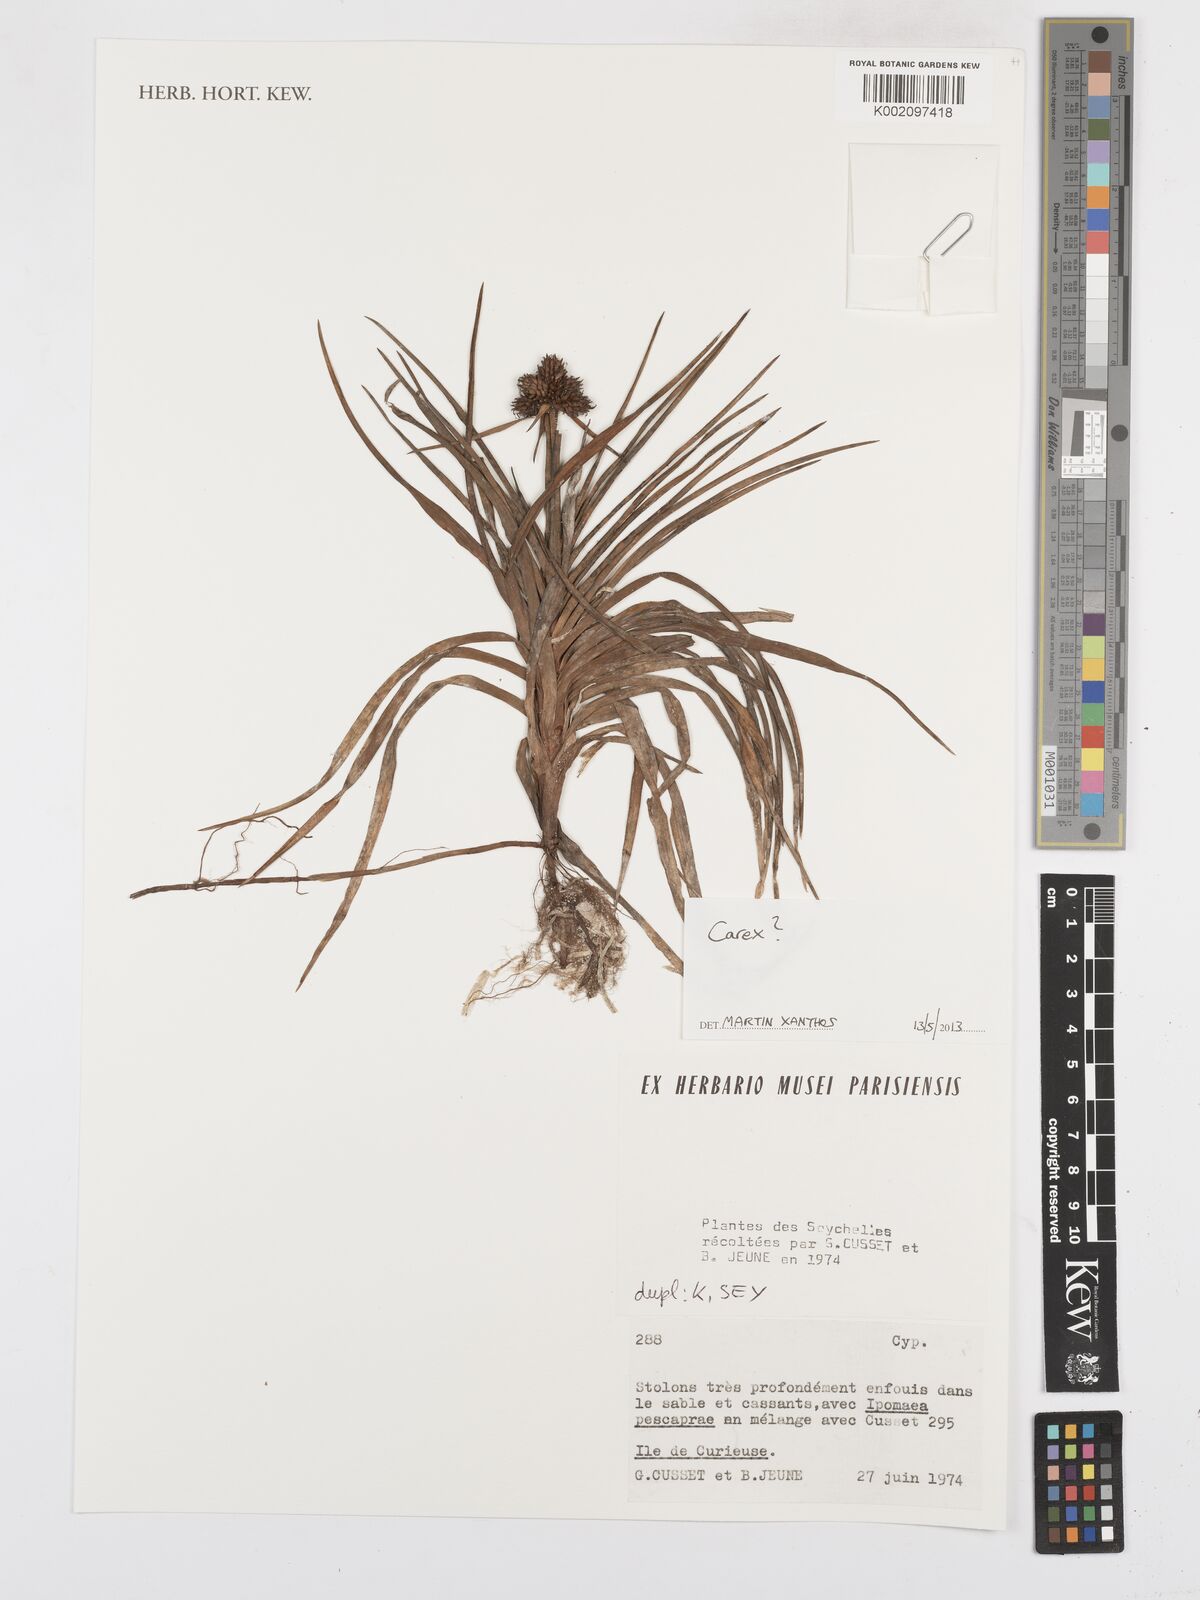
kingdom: Plantae
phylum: Tracheophyta
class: Liliopsida
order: Poales
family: Cyperaceae
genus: Carex
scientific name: Carex
